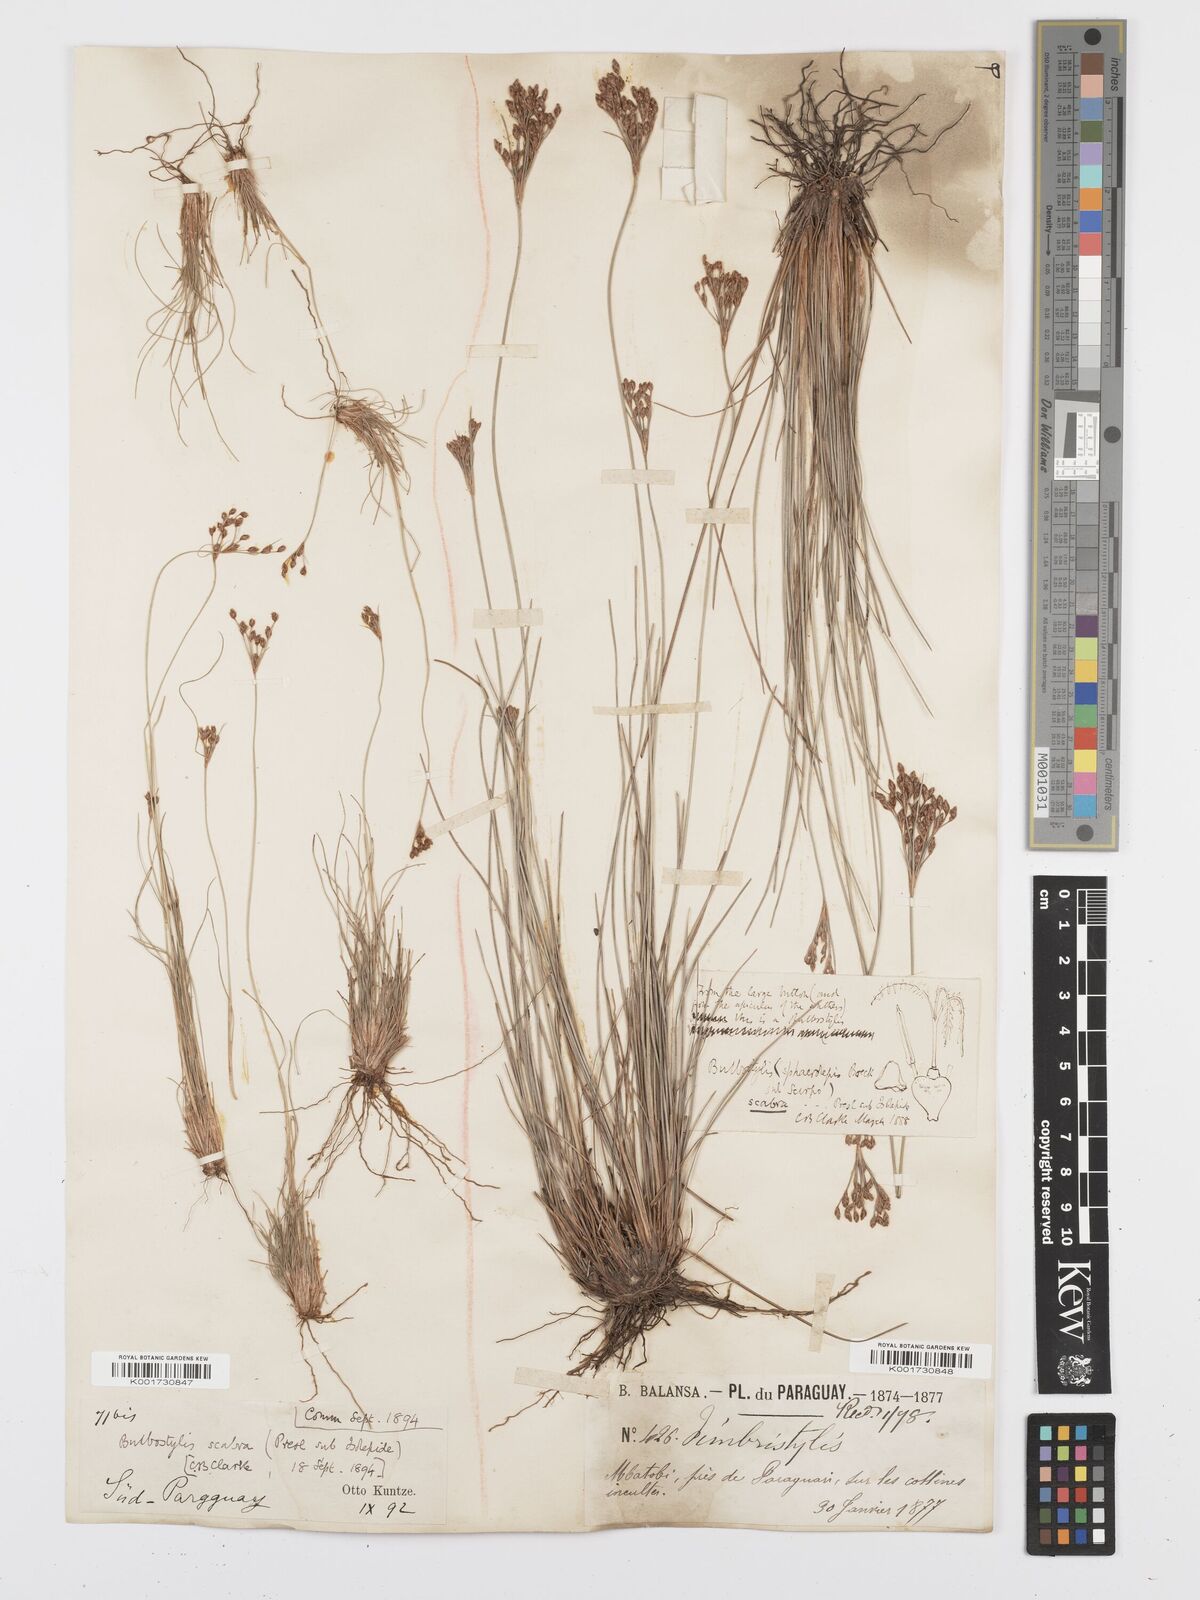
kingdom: Plantae
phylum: Tracheophyta
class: Liliopsida
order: Poales
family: Cyperaceae
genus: Bulbostylis
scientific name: Bulbostylis scabra
